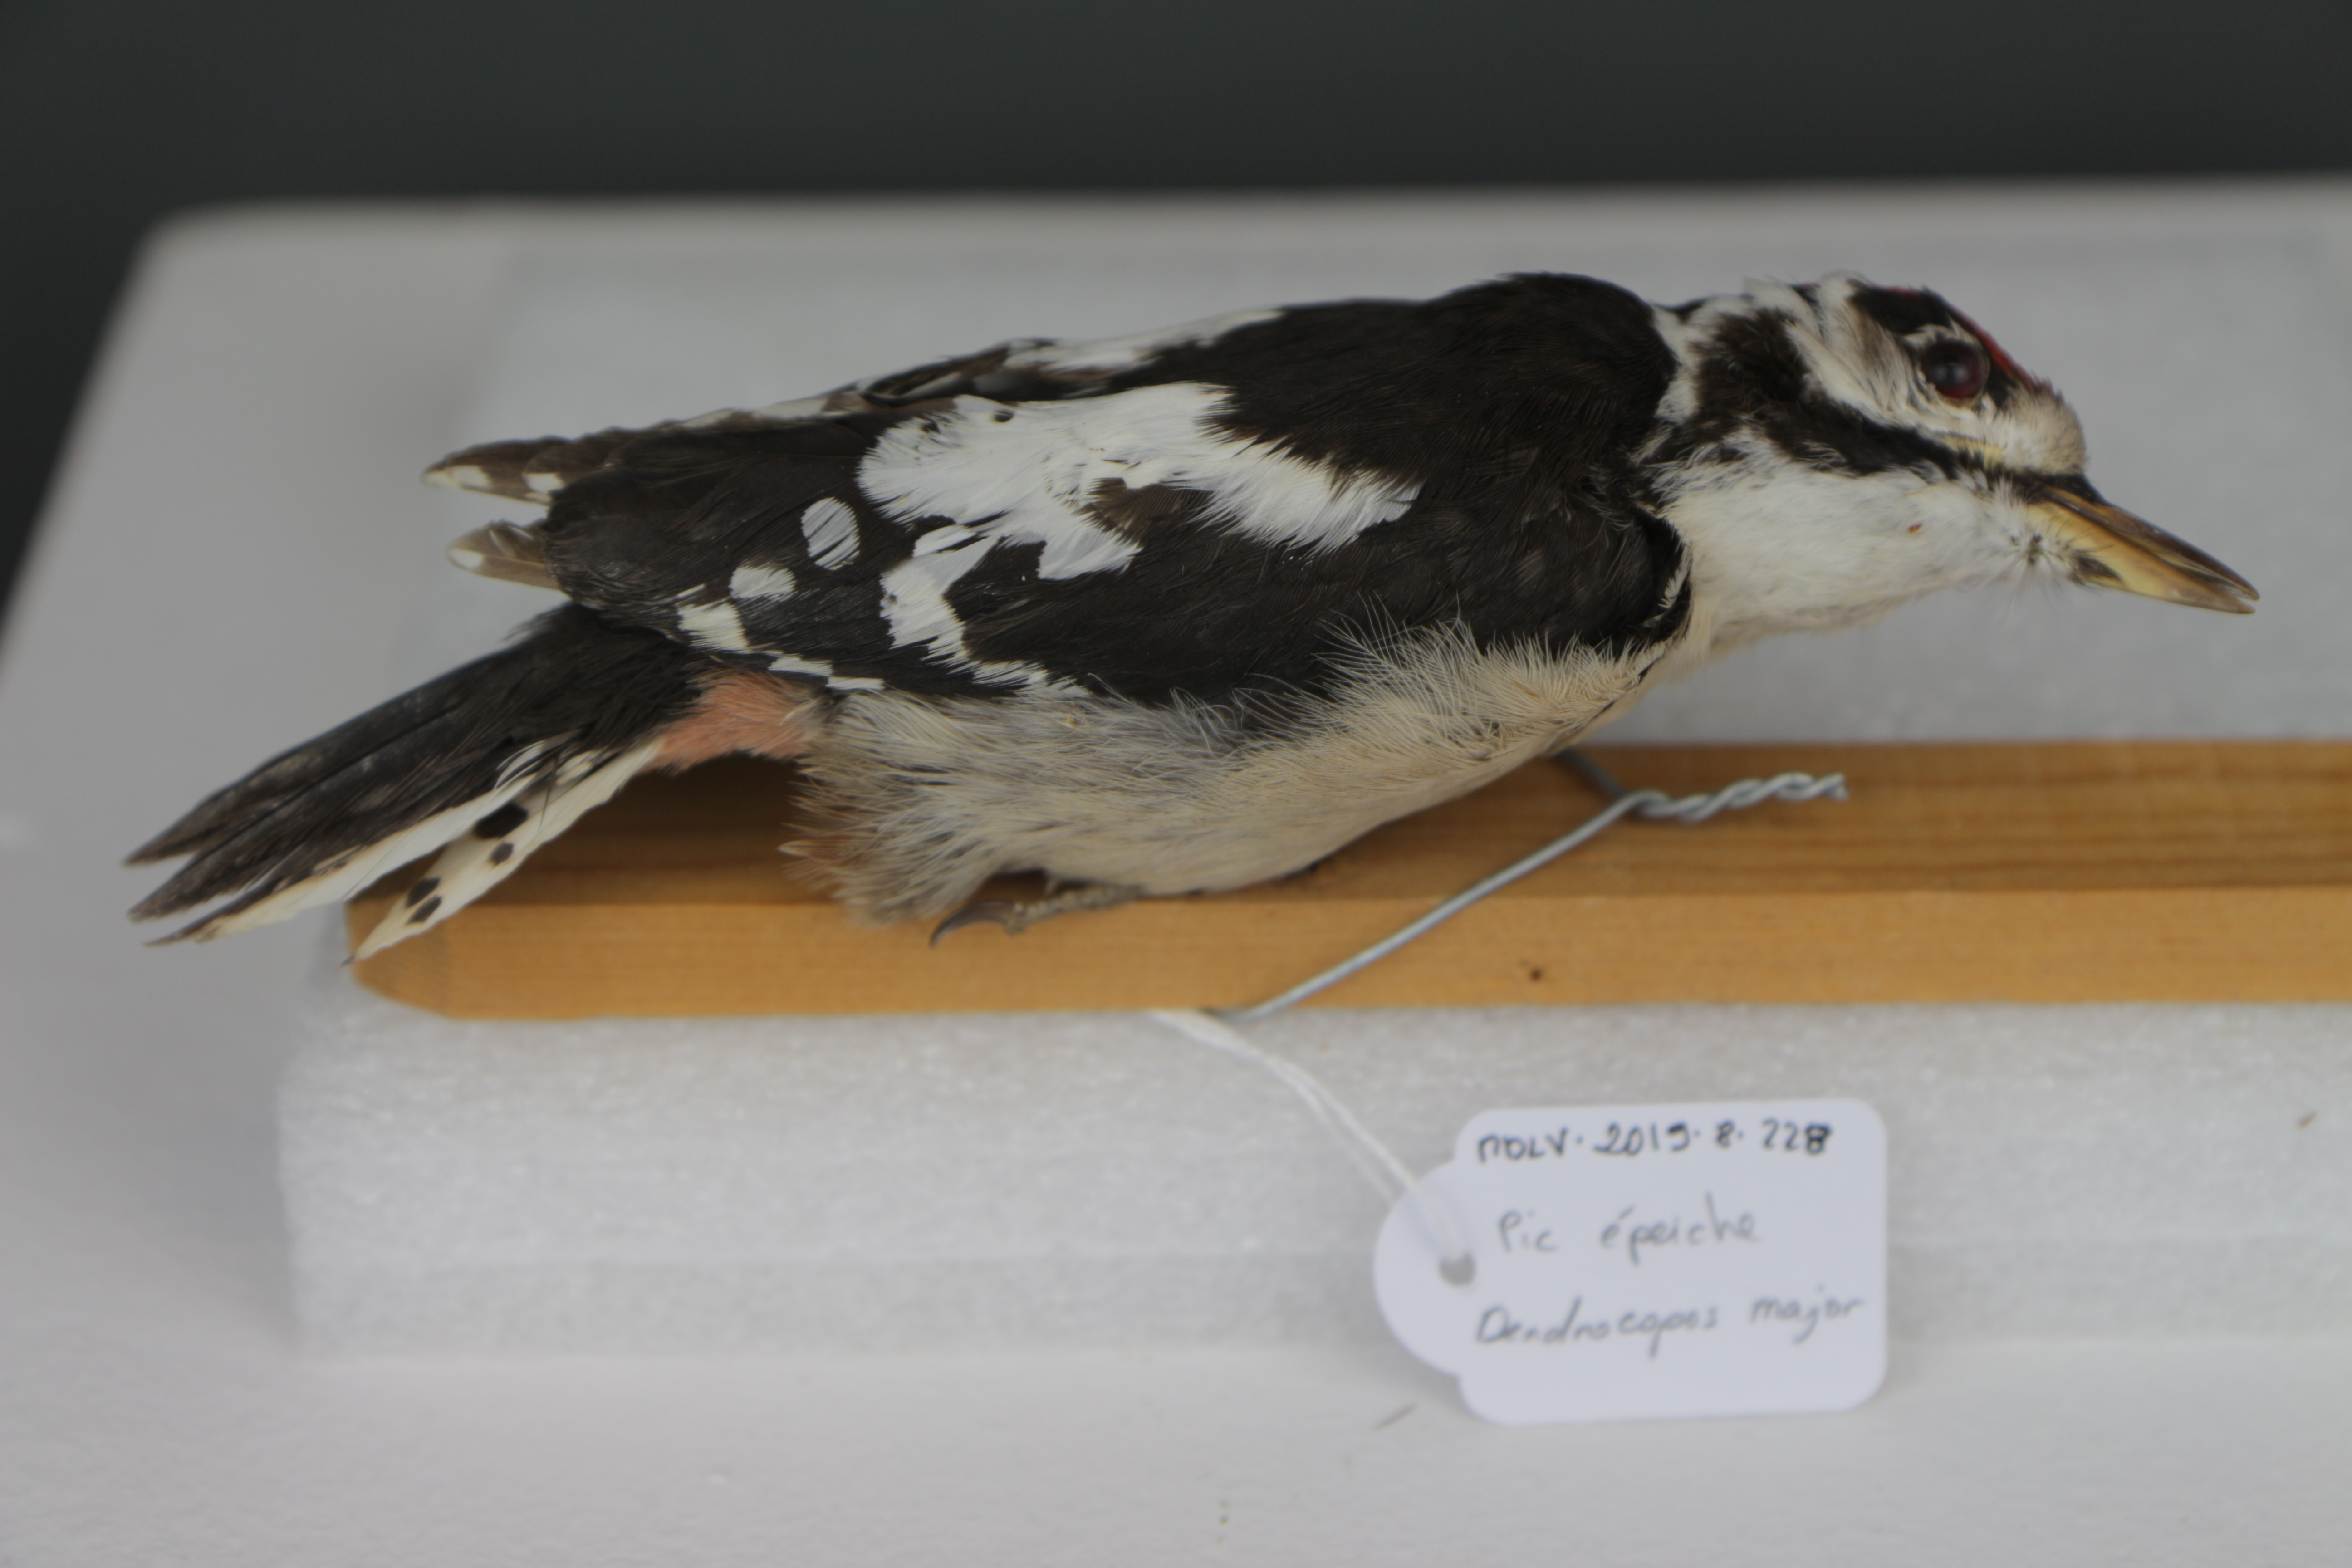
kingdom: Animalia
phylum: Chordata
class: Aves
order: Piciformes
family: Picidae
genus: Dendrocopos
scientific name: Dendrocopos major
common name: Great spotted woodpecker
